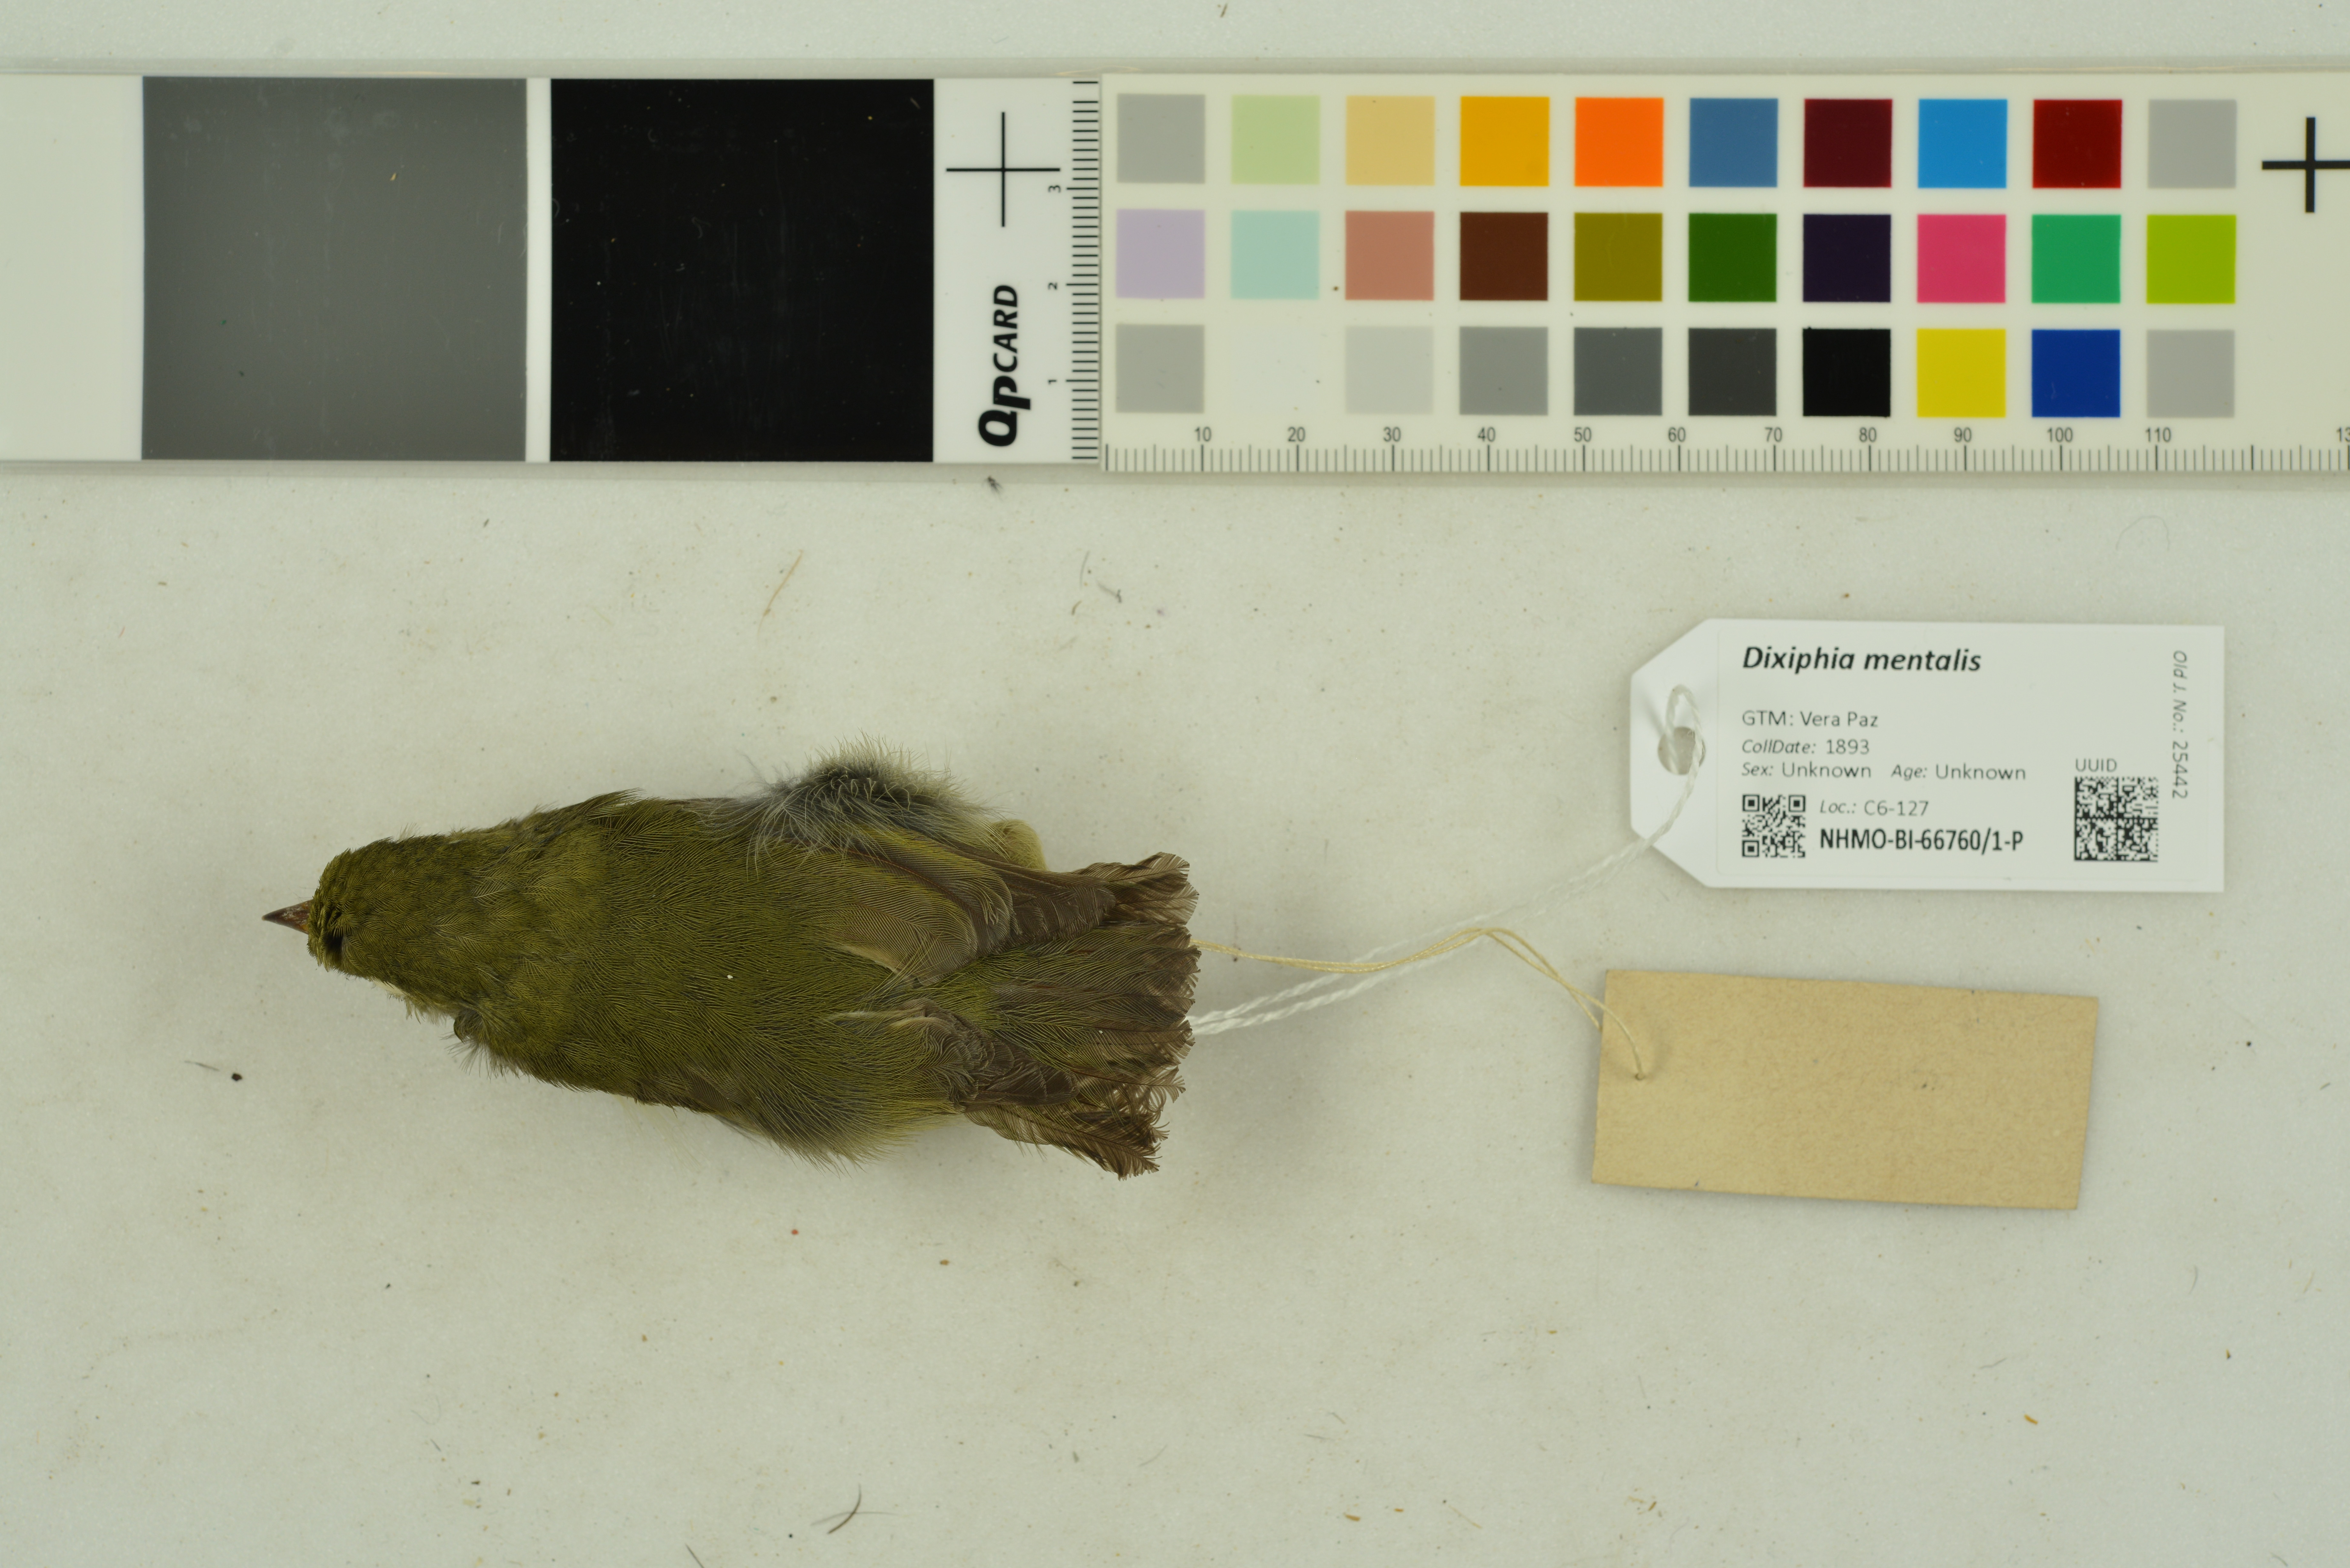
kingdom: Animalia
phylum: Chordata
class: Aves
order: Passeriformes
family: Pipridae
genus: Pipra
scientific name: Pipra mentalis
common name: Red-capped manakin
